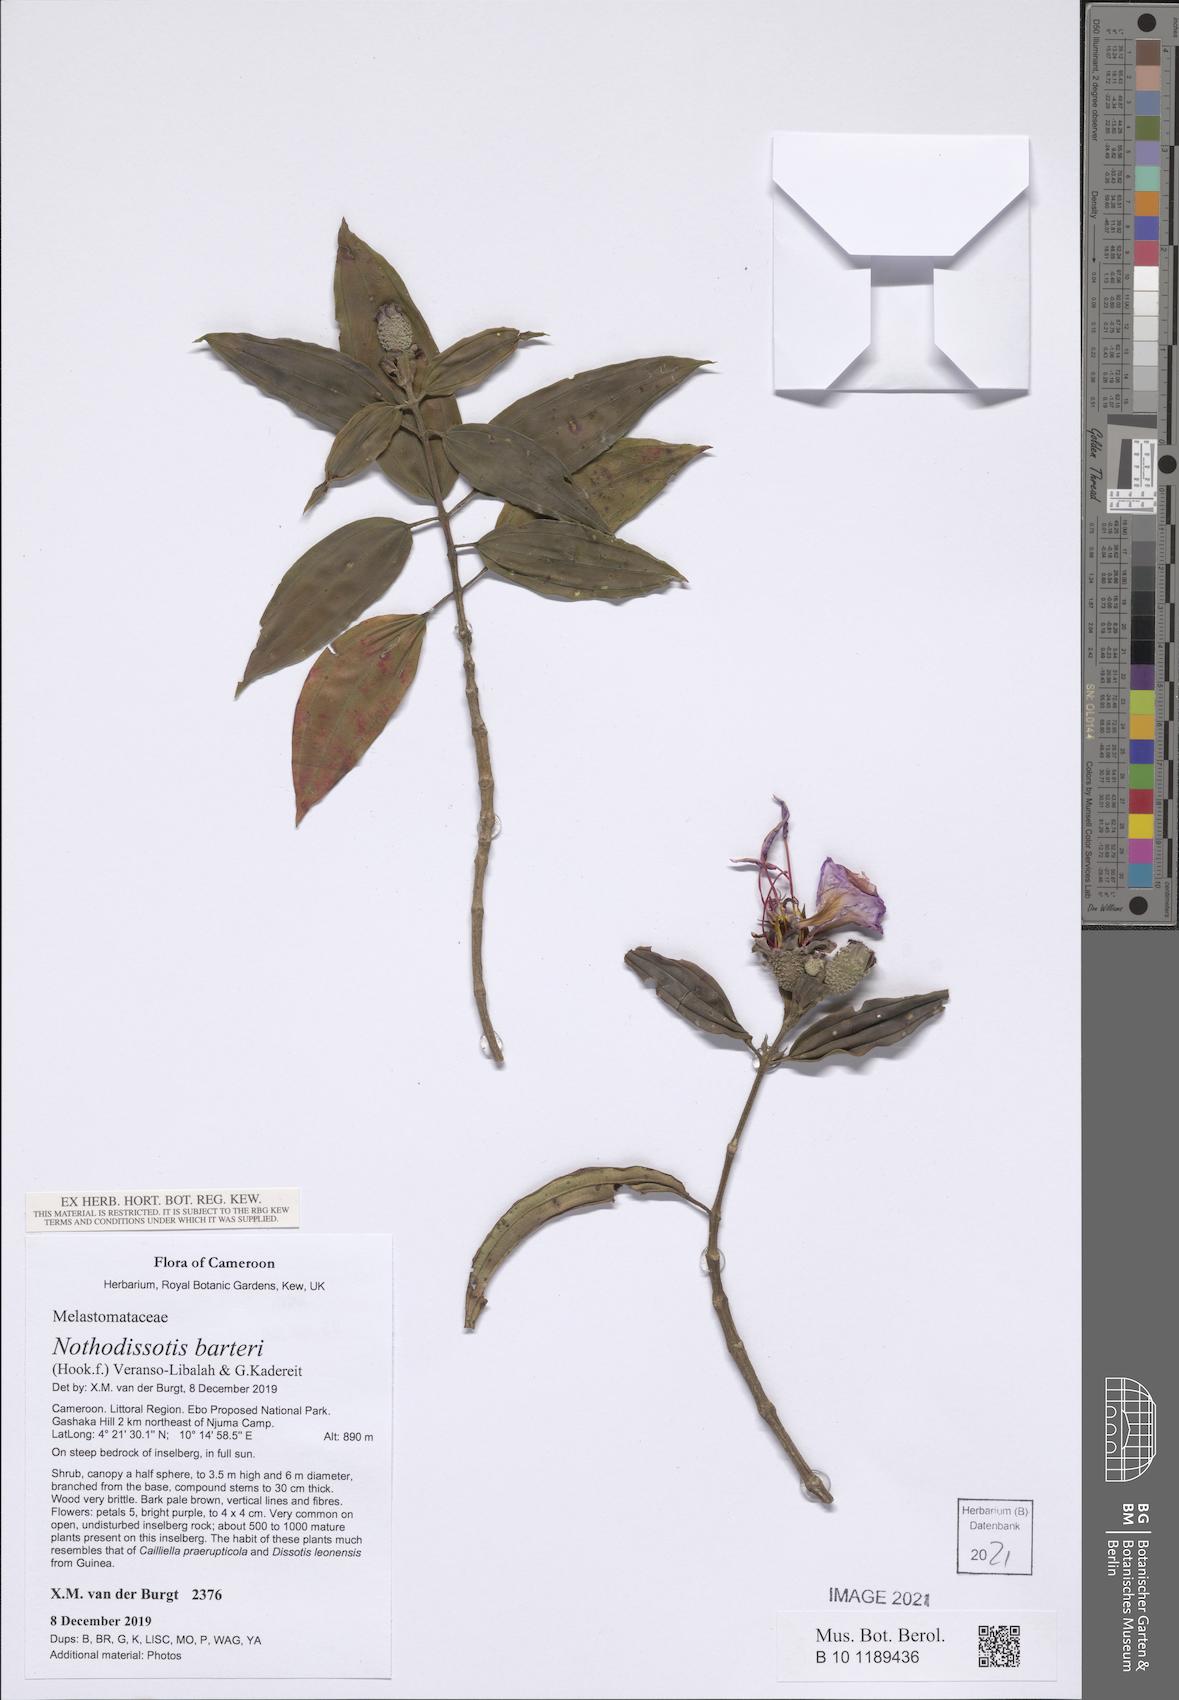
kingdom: Plantae
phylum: Tracheophyta
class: Magnoliopsida
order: Myrtales
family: Melastomataceae
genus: Nothodissotis
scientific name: Nothodissotis barteri
